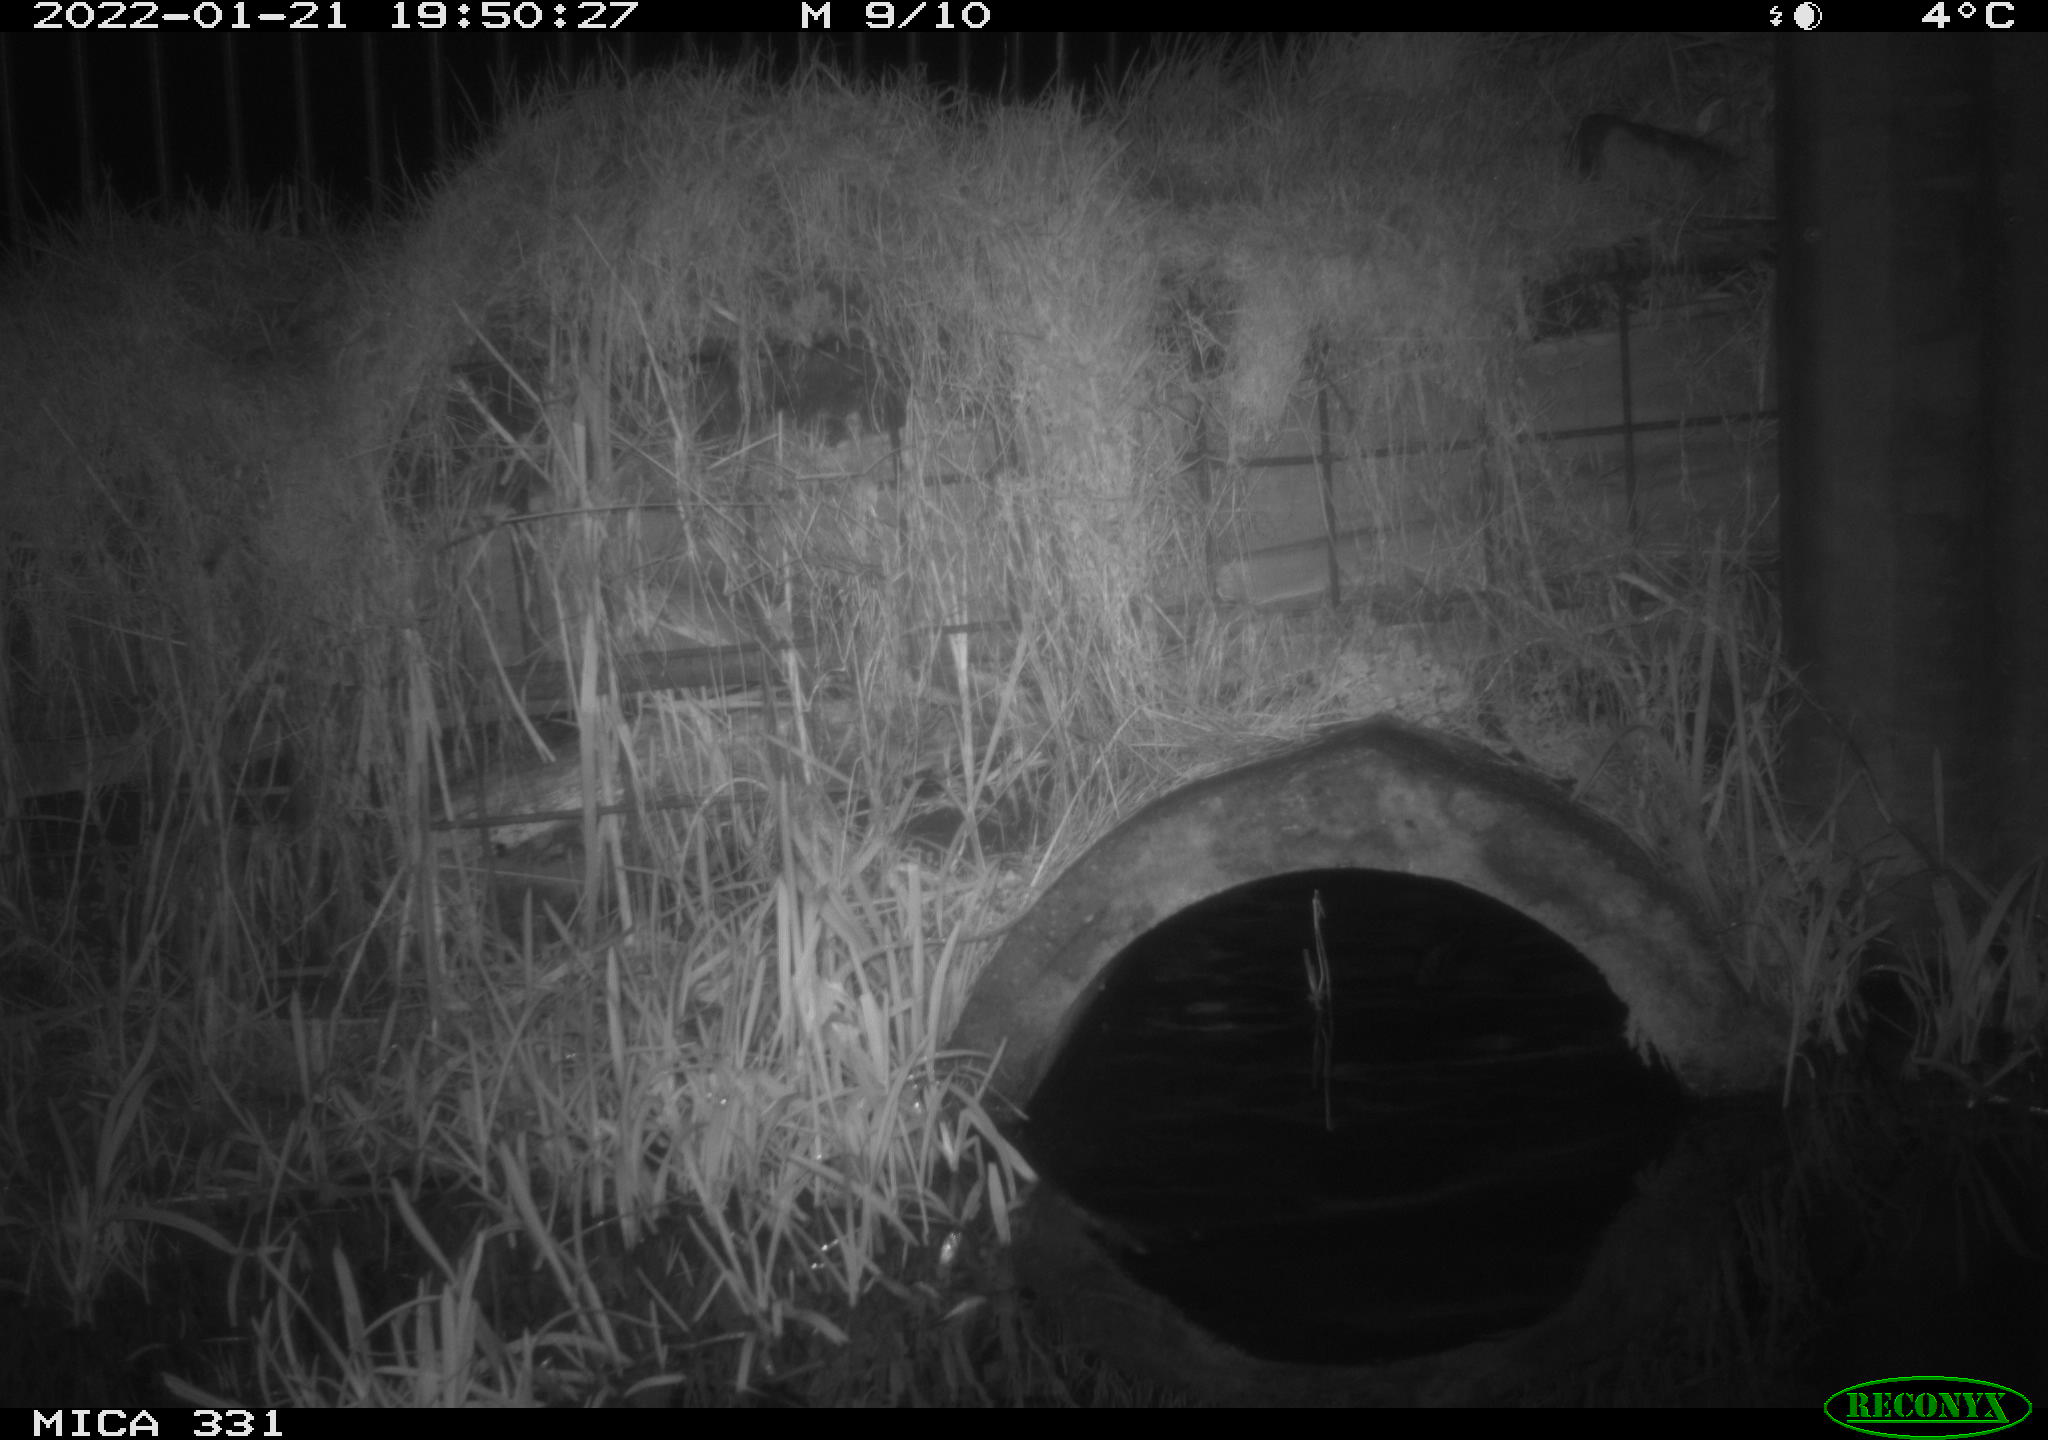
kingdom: Animalia
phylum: Chordata
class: Mammalia
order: Rodentia
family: Muridae
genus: Rattus
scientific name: Rattus norvegicus
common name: Brown rat
